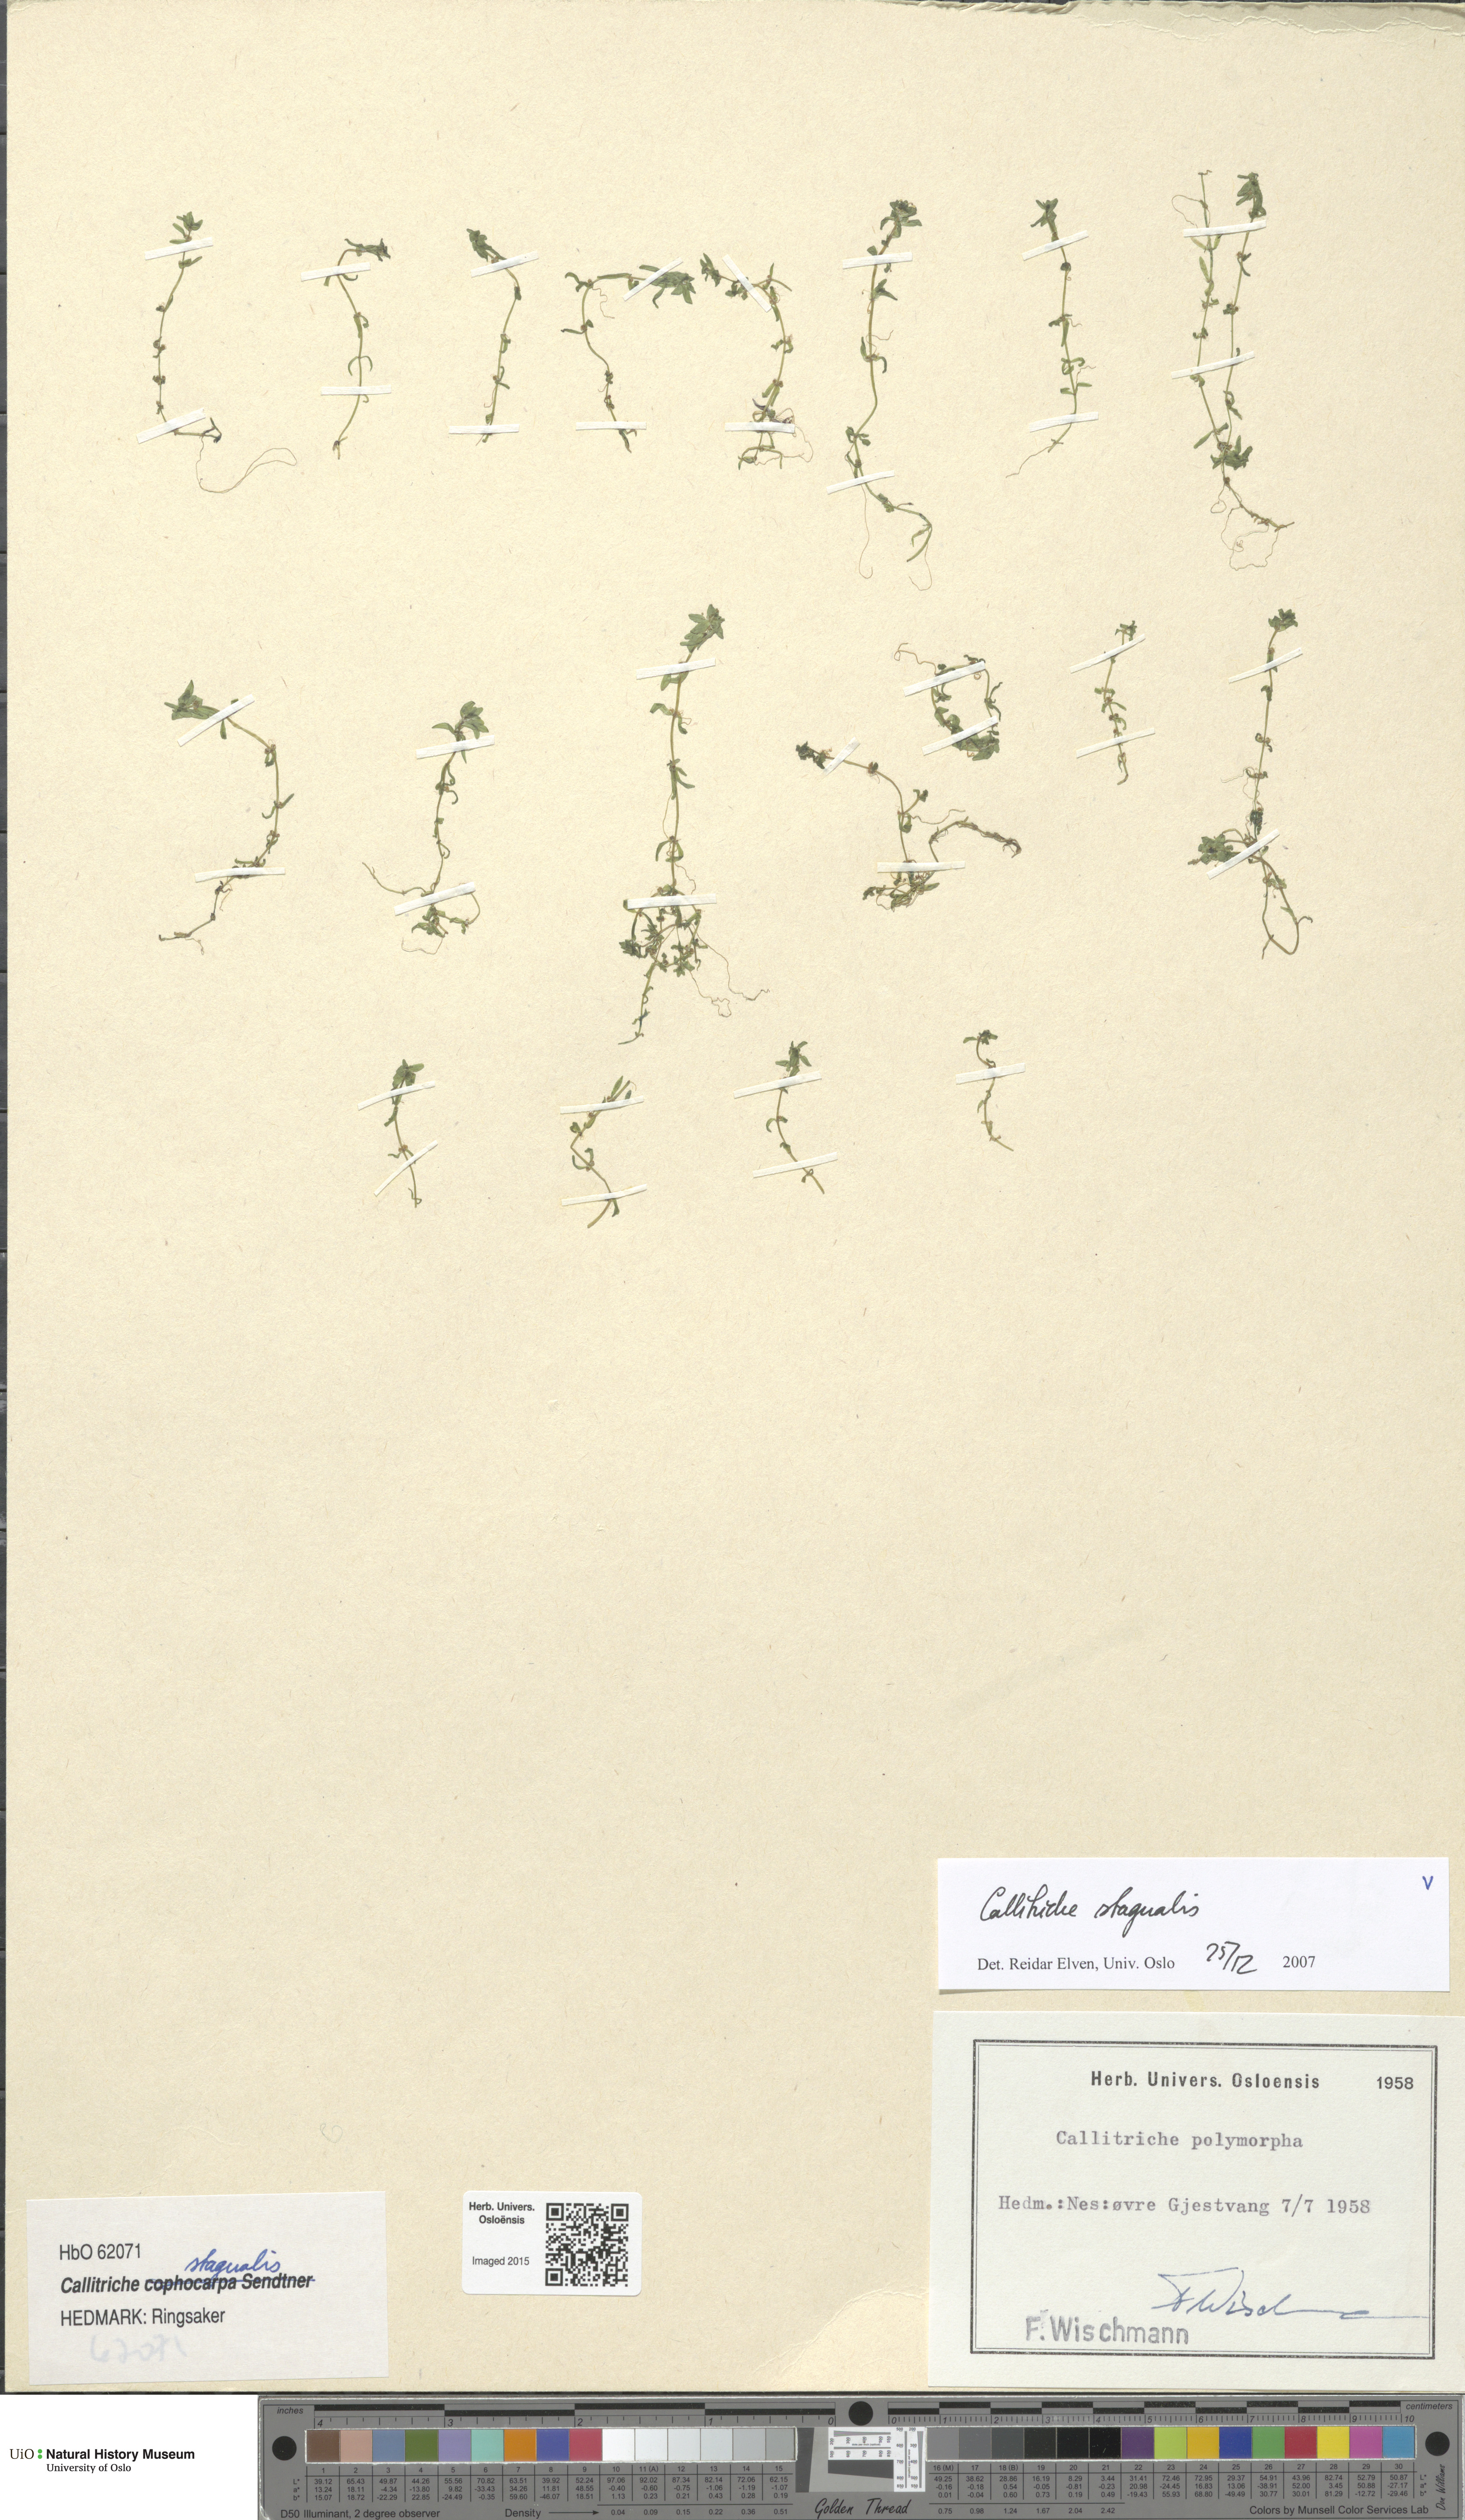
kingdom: Plantae
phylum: Tracheophyta
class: Magnoliopsida
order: Lamiales
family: Plantaginaceae
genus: Callitriche
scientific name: Callitriche stagnalis
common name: Common water-starwort
